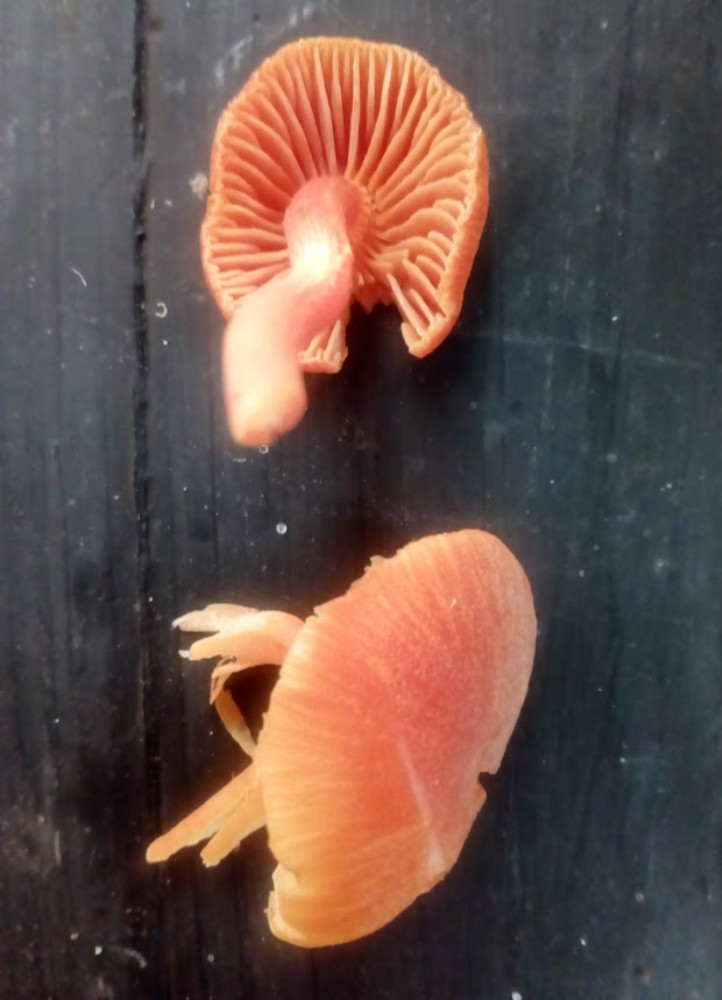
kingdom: Fungi
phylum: Basidiomycota
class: Agaricomycetes
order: Agaricales
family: Hygrophoraceae
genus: Hygrocybe
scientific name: Hygrocybe miniata
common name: mønje-vokshat
